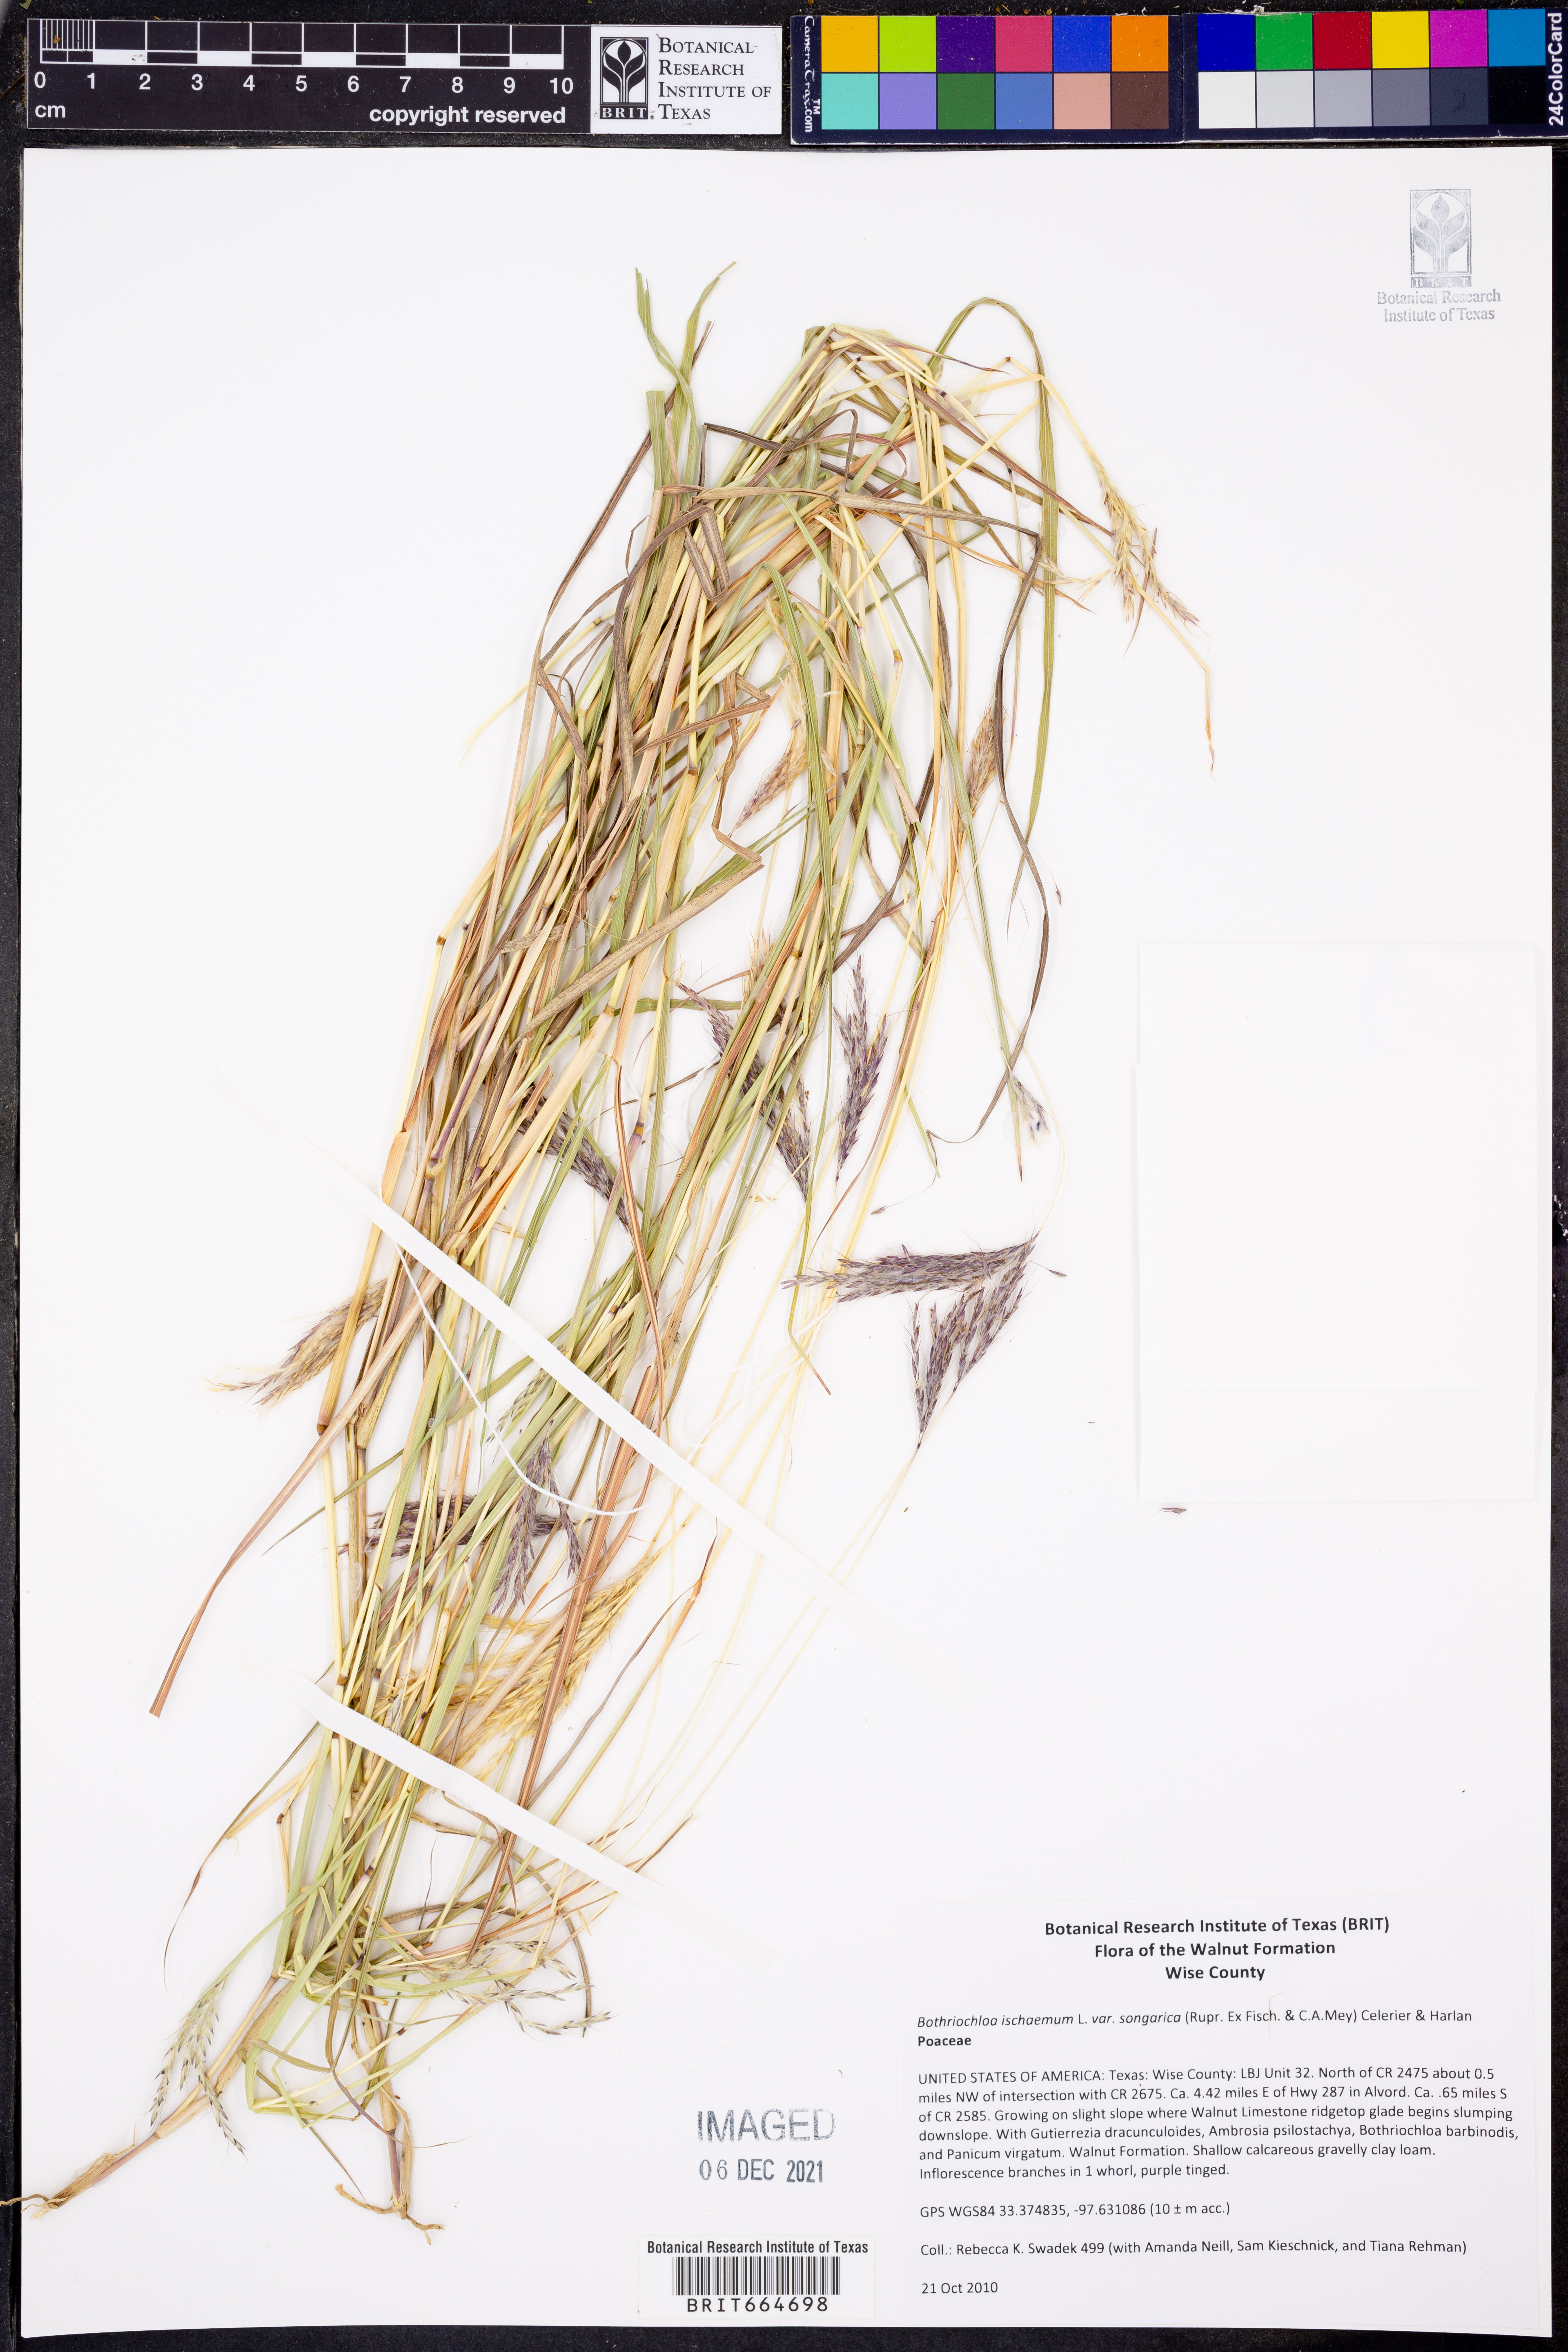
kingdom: Plantae
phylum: Tracheophyta
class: Liliopsida
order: Poales
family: Poaceae
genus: Bothriochloa
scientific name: Bothriochloa ischaemum
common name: Yellow bluestem
